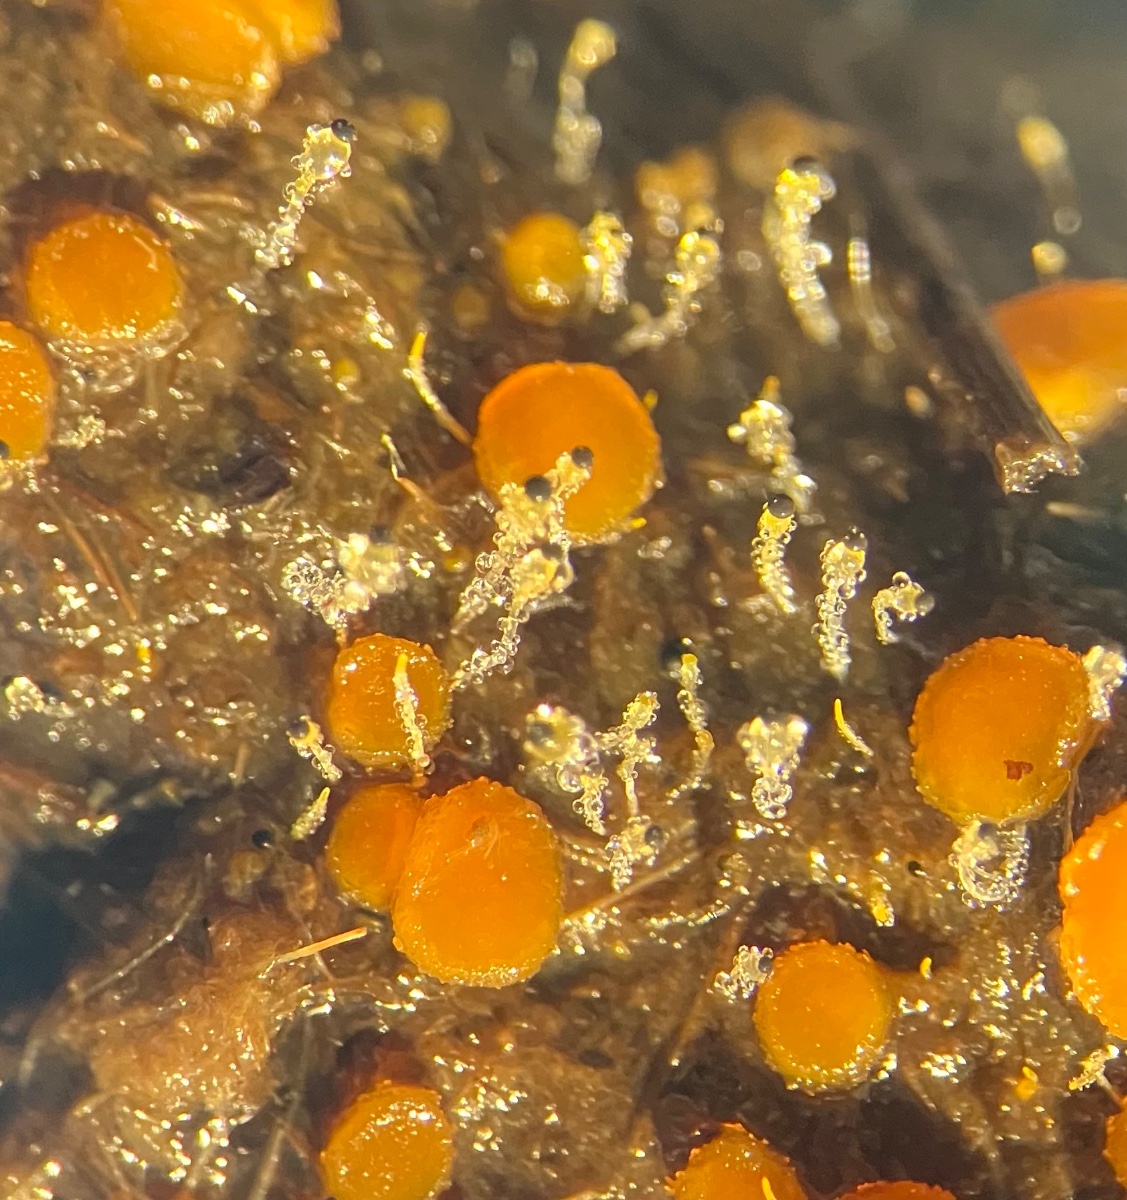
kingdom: Fungi
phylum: Mucoromycota
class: Mucoromycetes
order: Mucorales
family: Pilobolaceae
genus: Pilobolus
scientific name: Pilobolus kleinii
